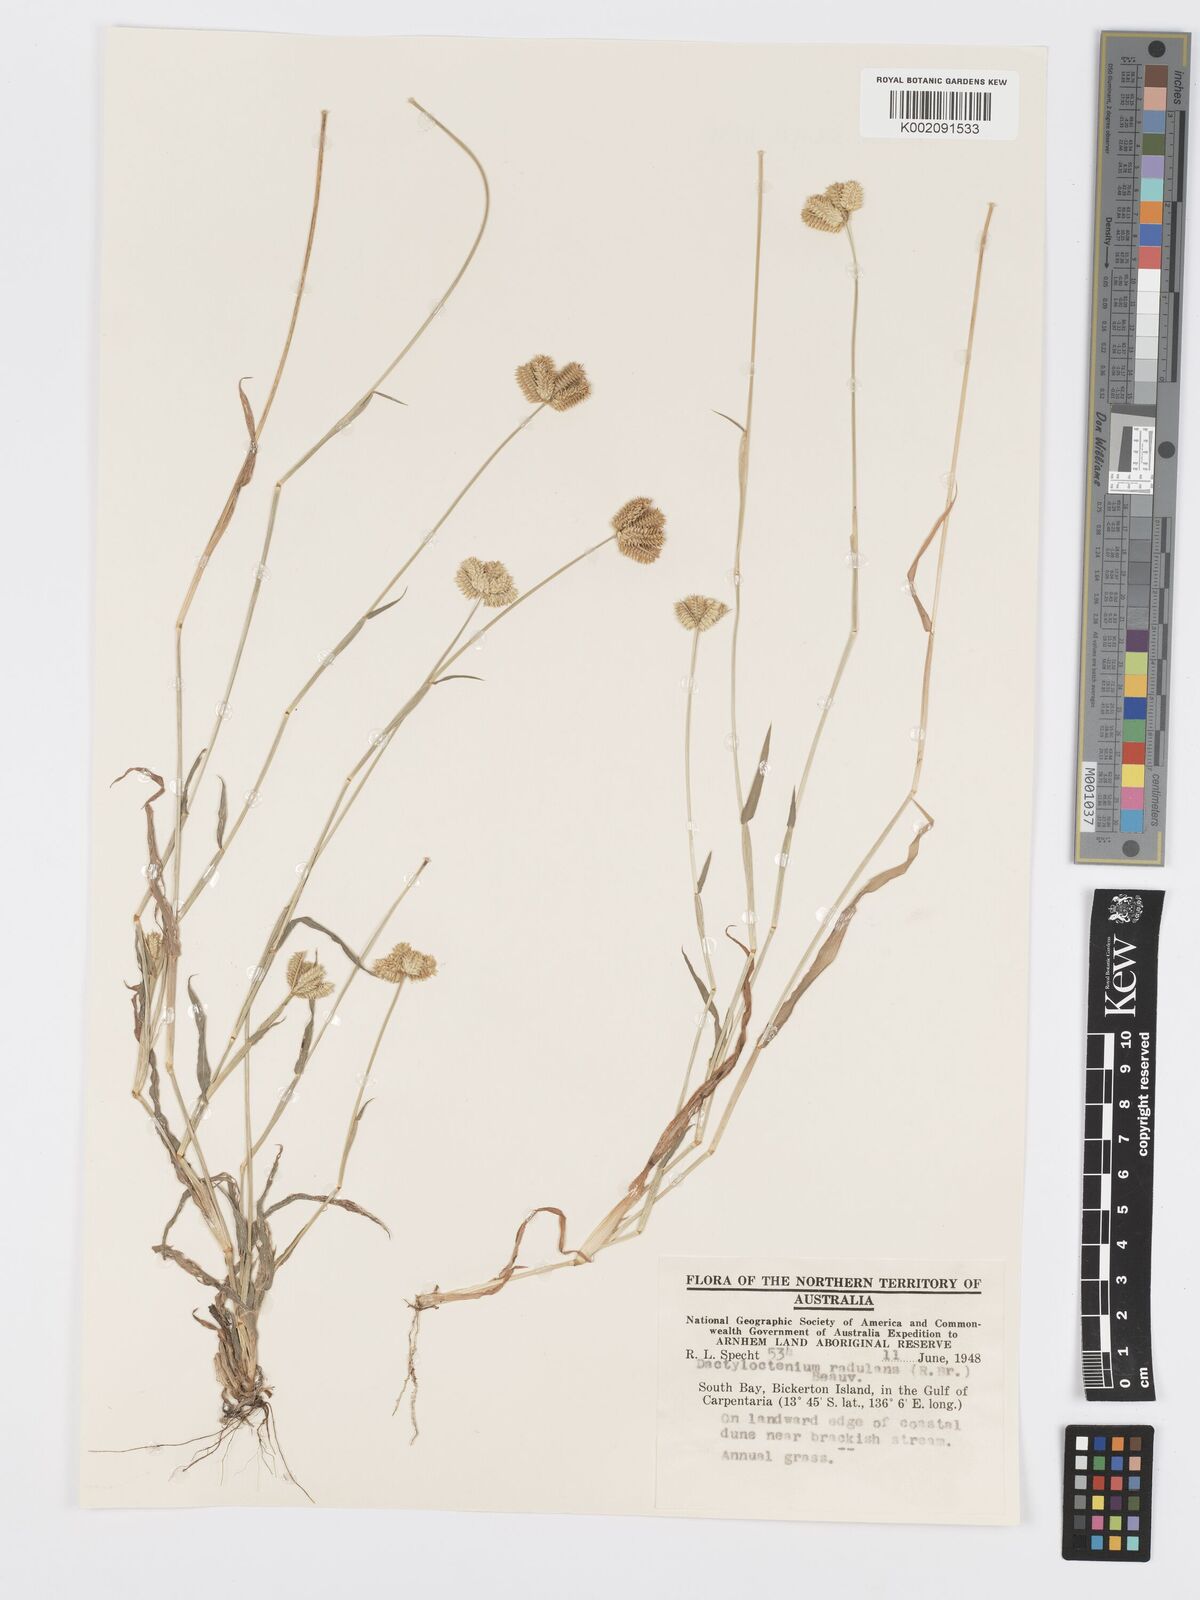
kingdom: Plantae
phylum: Tracheophyta
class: Liliopsida
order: Poales
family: Poaceae
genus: Dactyloctenium
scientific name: Dactyloctenium radulans
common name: Button-grass
